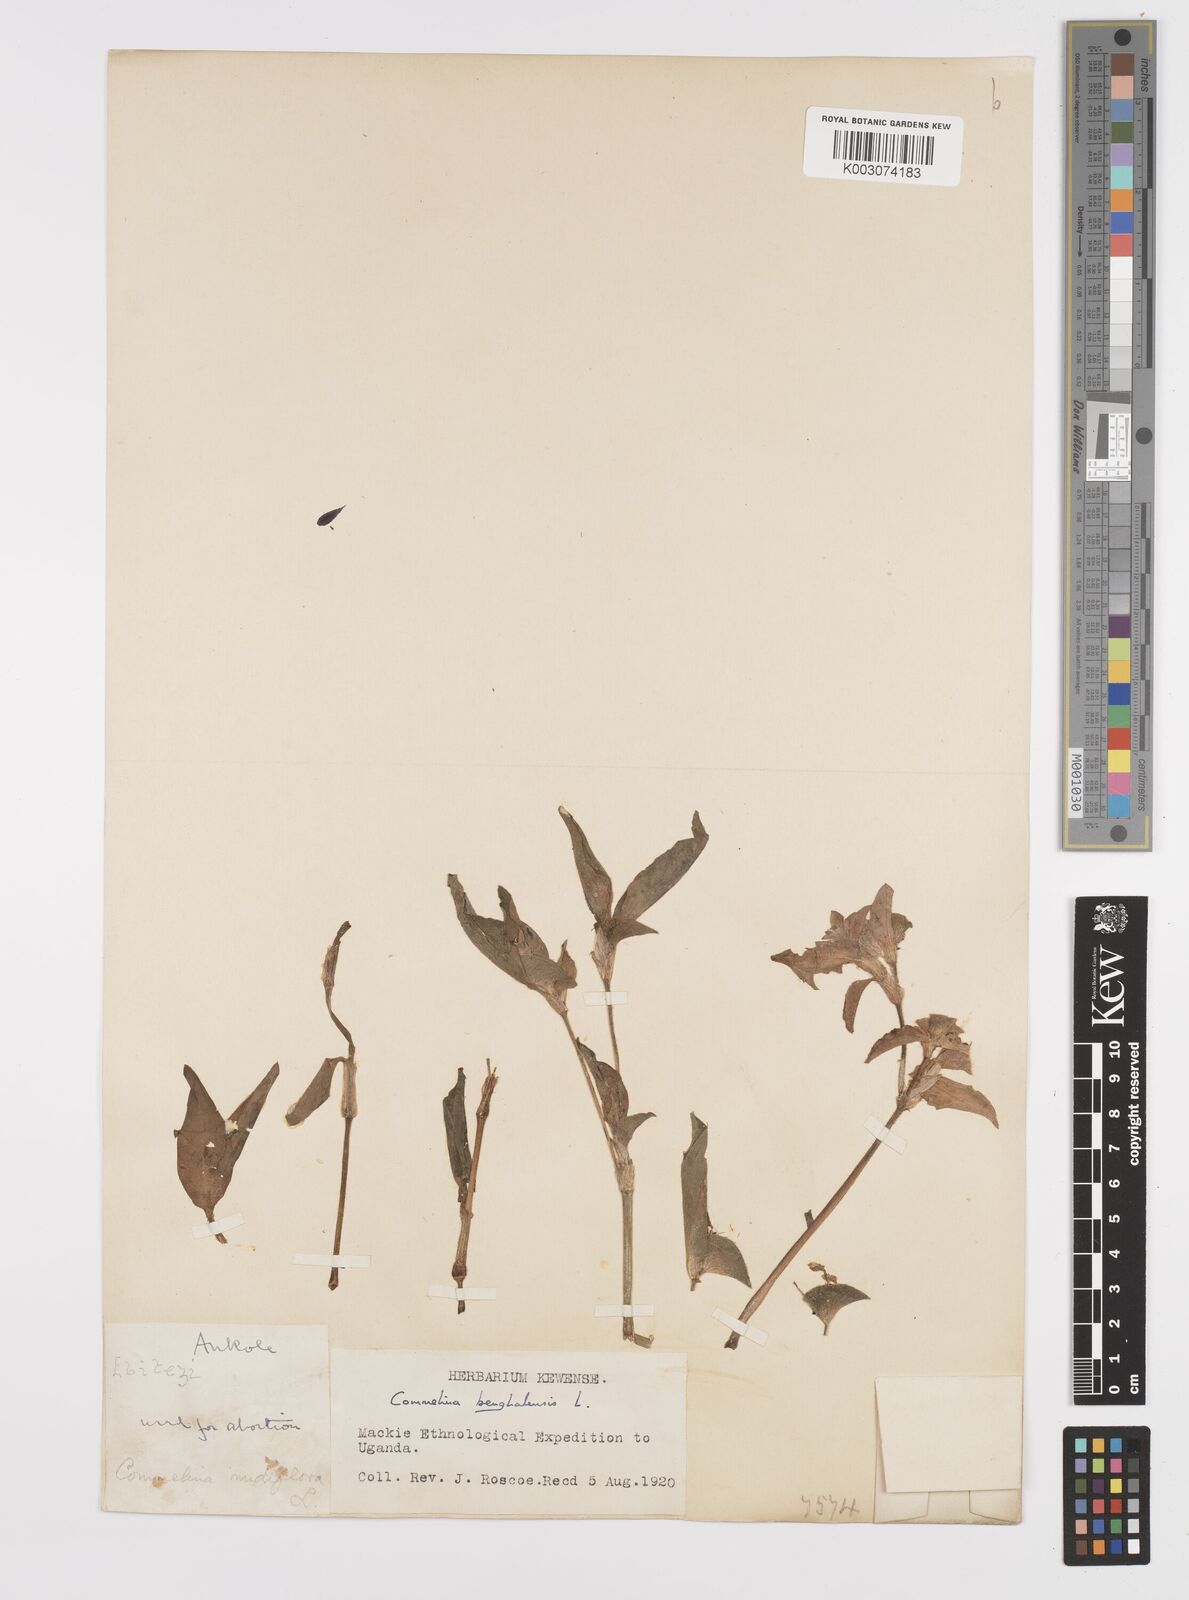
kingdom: Plantae
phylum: Tracheophyta
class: Liliopsida
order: Commelinales
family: Commelinaceae
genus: Commelina
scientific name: Commelina benghalensis
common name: Jio
